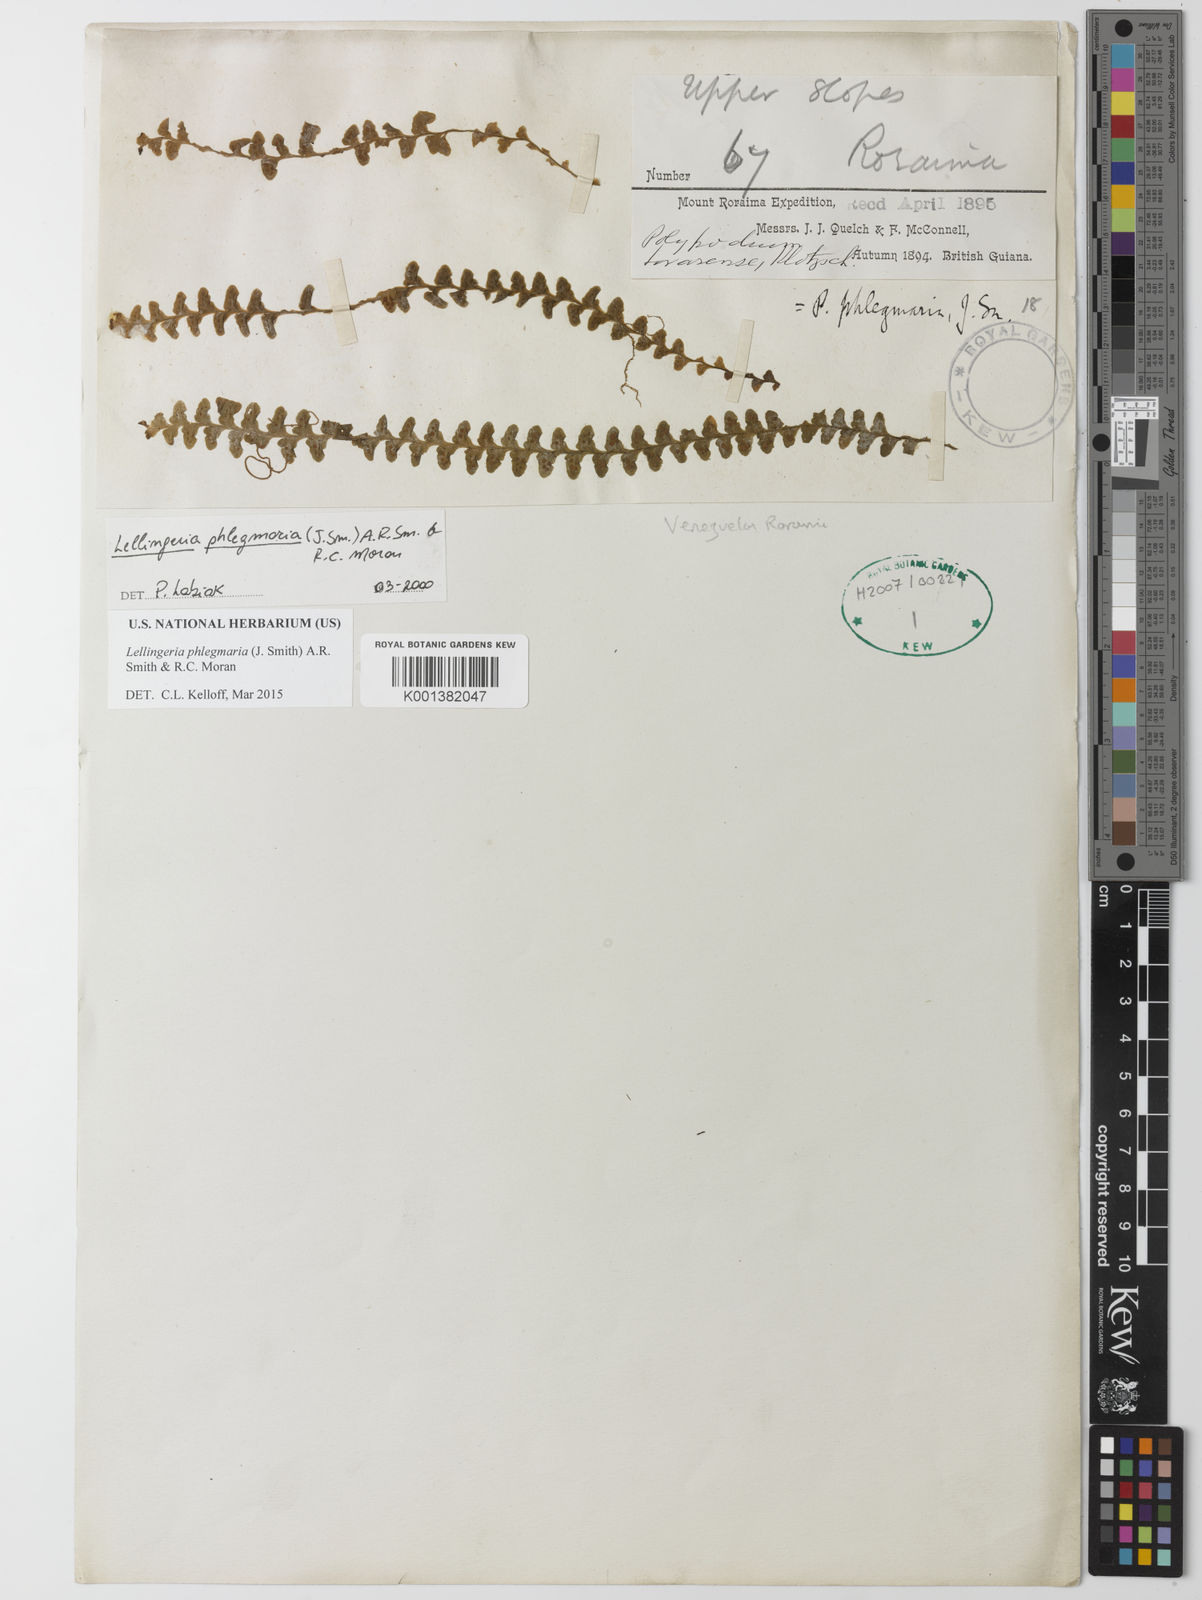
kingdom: Plantae
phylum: Tracheophyta
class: Polypodiopsida
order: Polypodiales
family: Polypodiaceae
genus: Lellingeria
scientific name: Lellingeria phlegmaria
